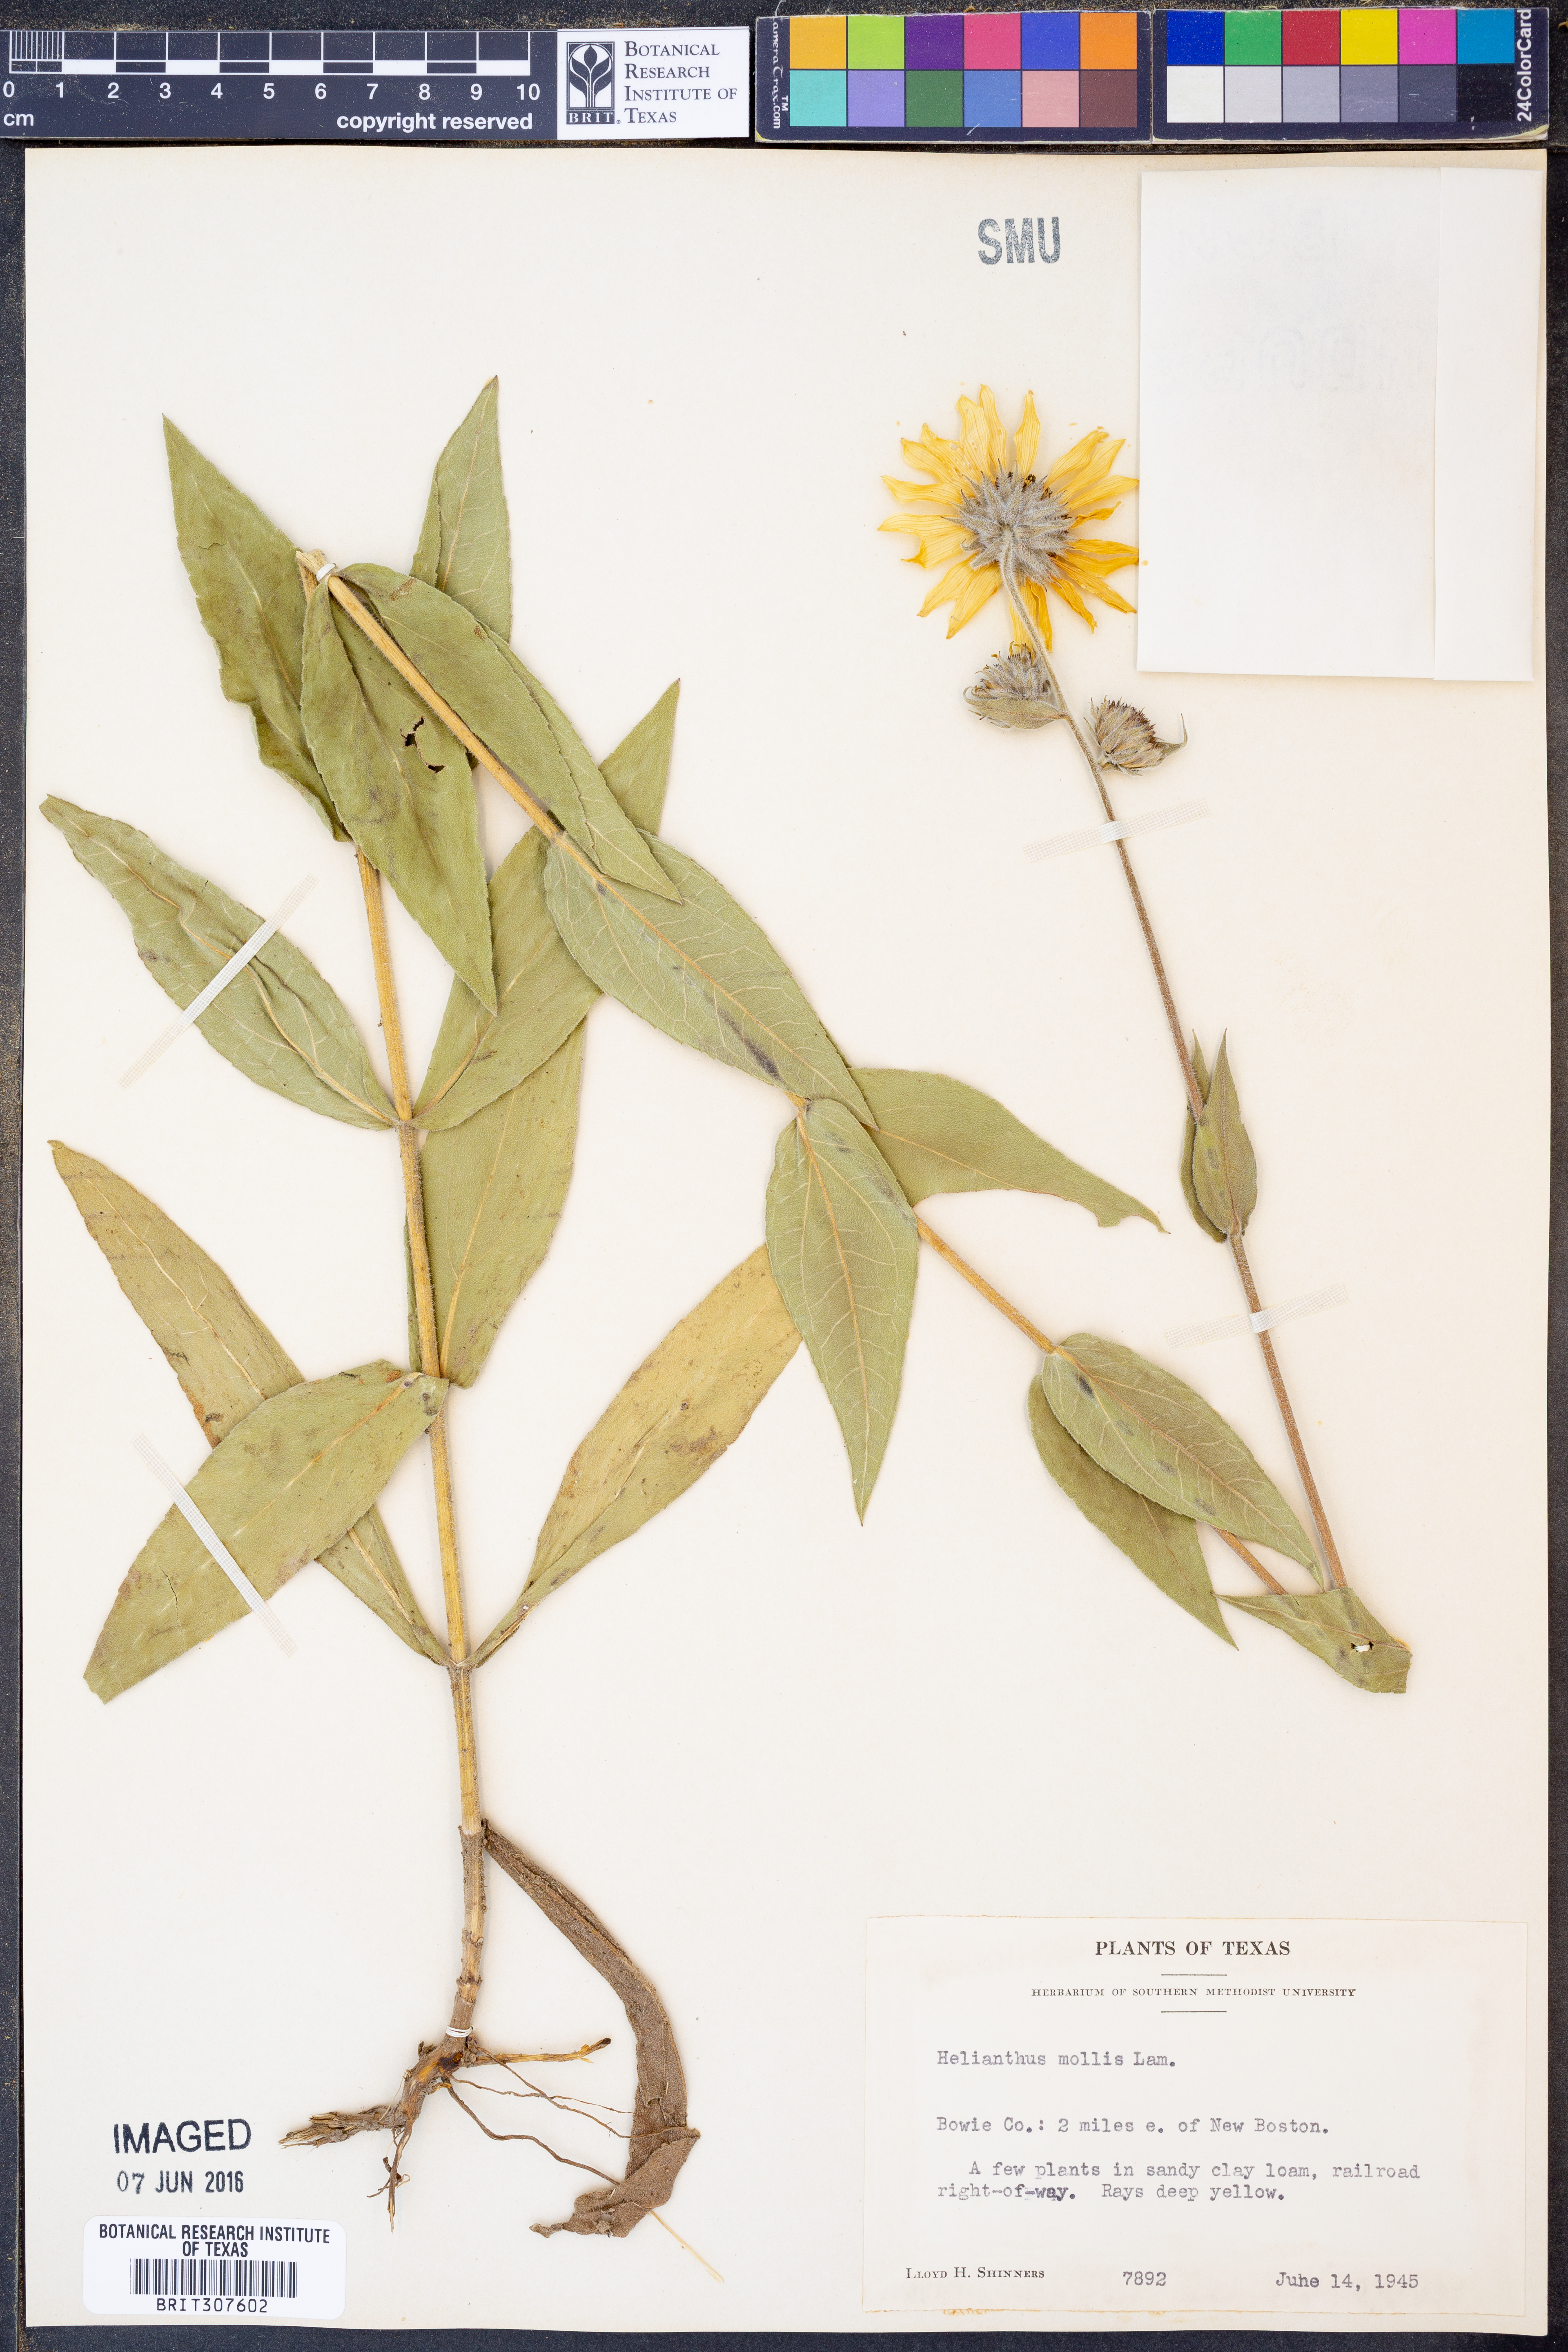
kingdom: Plantae
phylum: Tracheophyta
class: Magnoliopsida
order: Asterales
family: Asteraceae
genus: Helianthus
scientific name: Helianthus mollis
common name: Ashy sunflower
